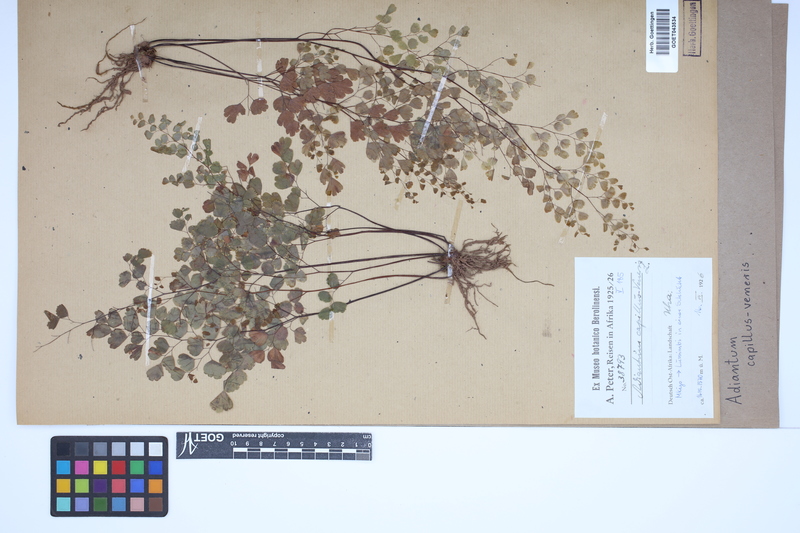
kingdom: Plantae
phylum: Tracheophyta
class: Polypodiopsida
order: Polypodiales
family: Pteridaceae
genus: Adiantum
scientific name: Adiantum capillus-veneris
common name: Maidenhair fern
